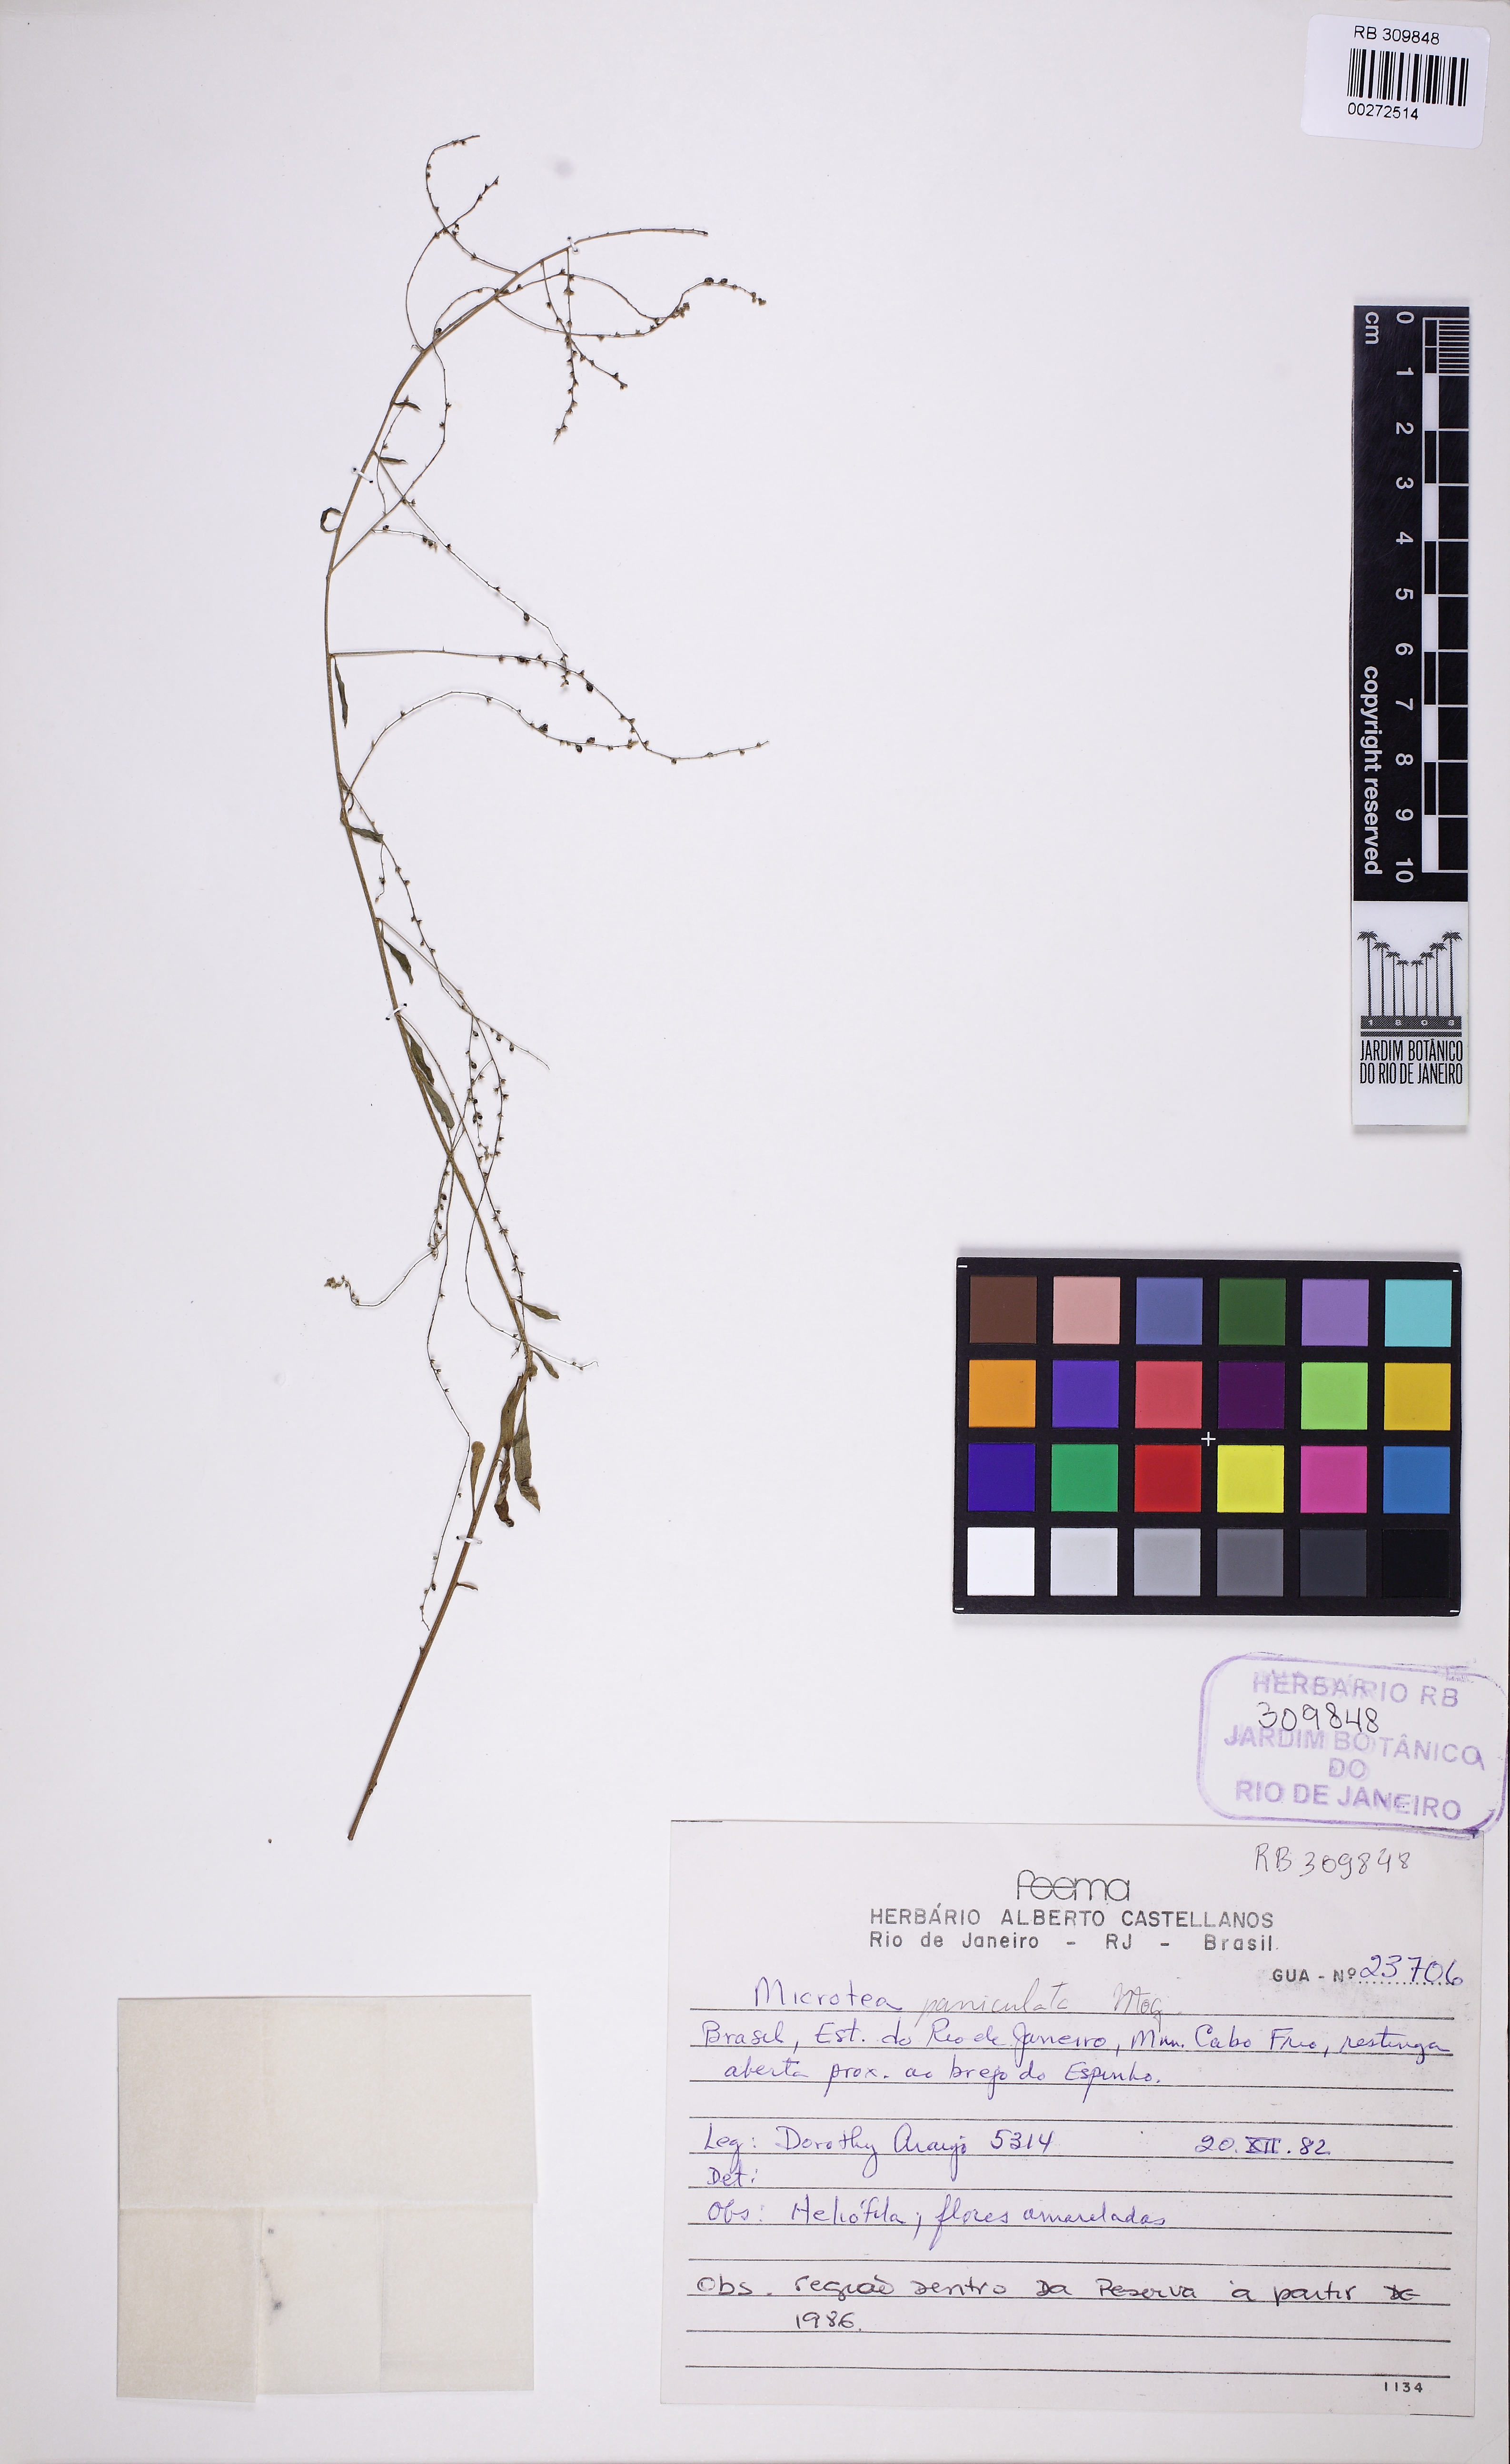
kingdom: Plantae
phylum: Tracheophyta
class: Magnoliopsida
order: Caryophyllales
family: Microteaceae
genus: Microtea
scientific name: Microtea paniculata
